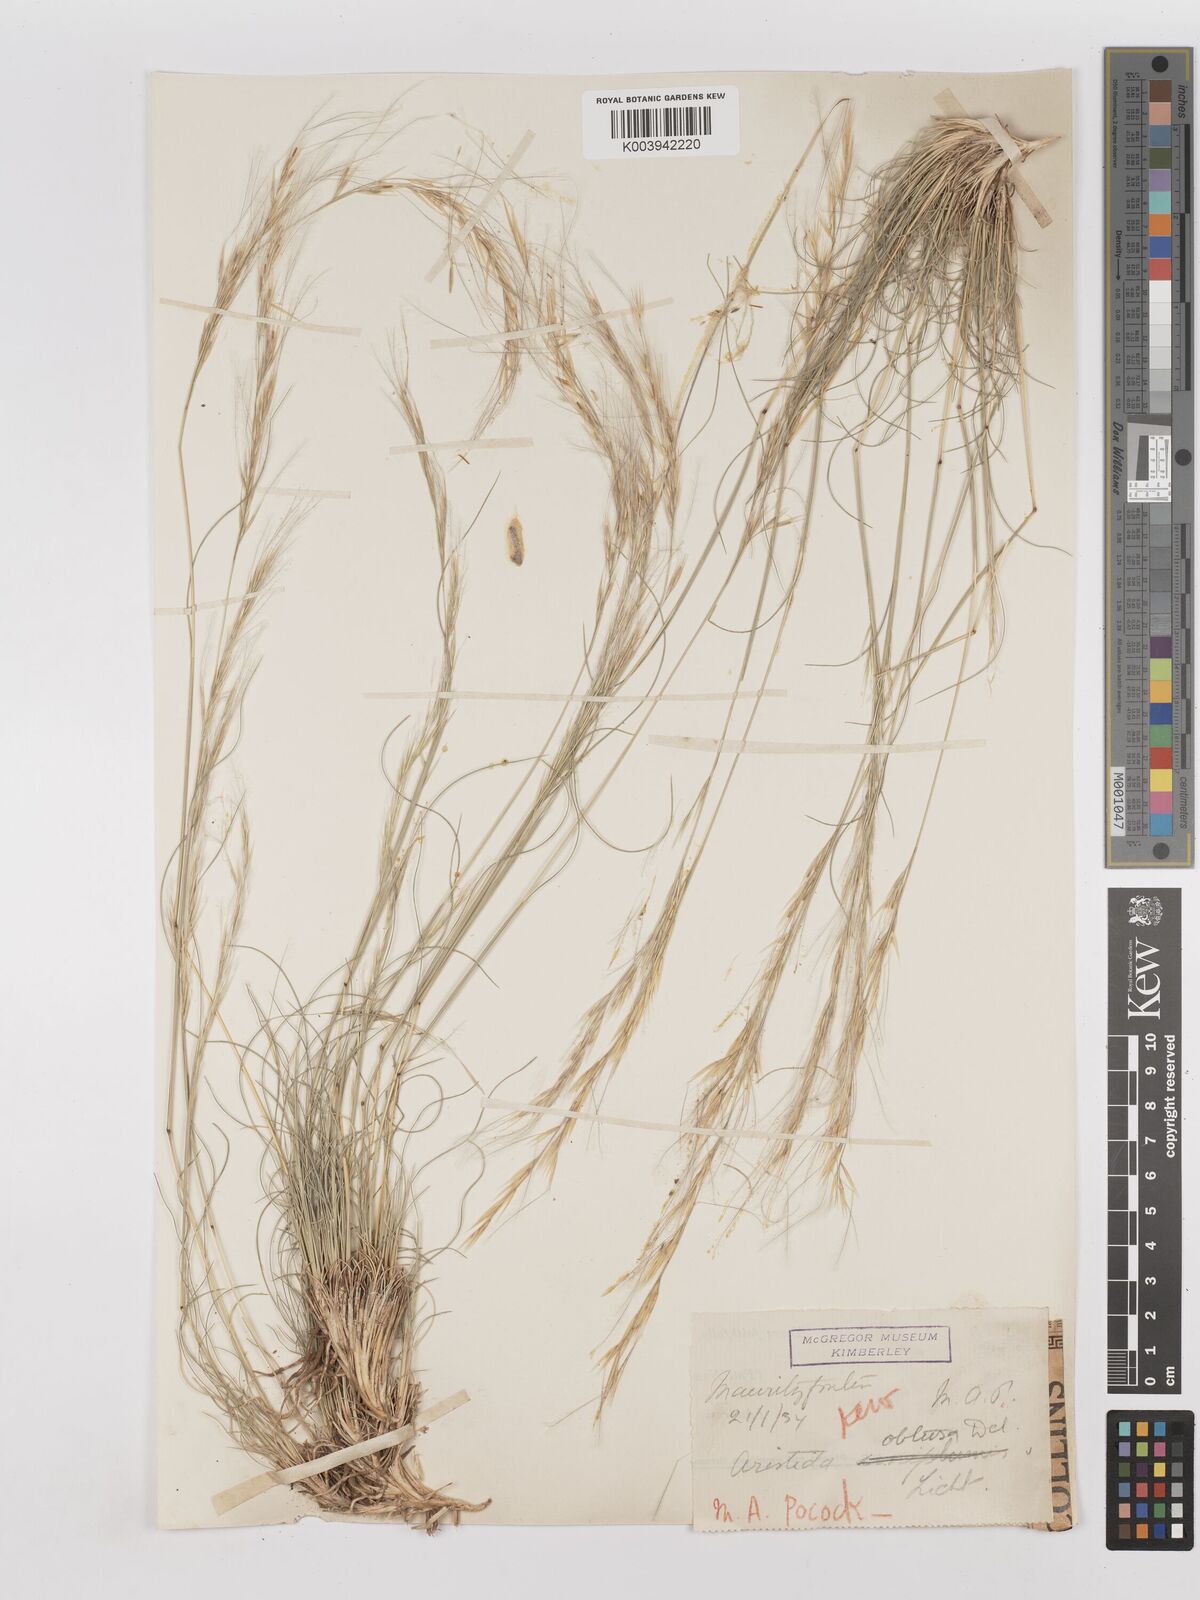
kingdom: Plantae
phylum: Tracheophyta
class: Liliopsida
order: Poales
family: Poaceae
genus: Stipagrostis
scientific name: Stipagrostis obtusa
